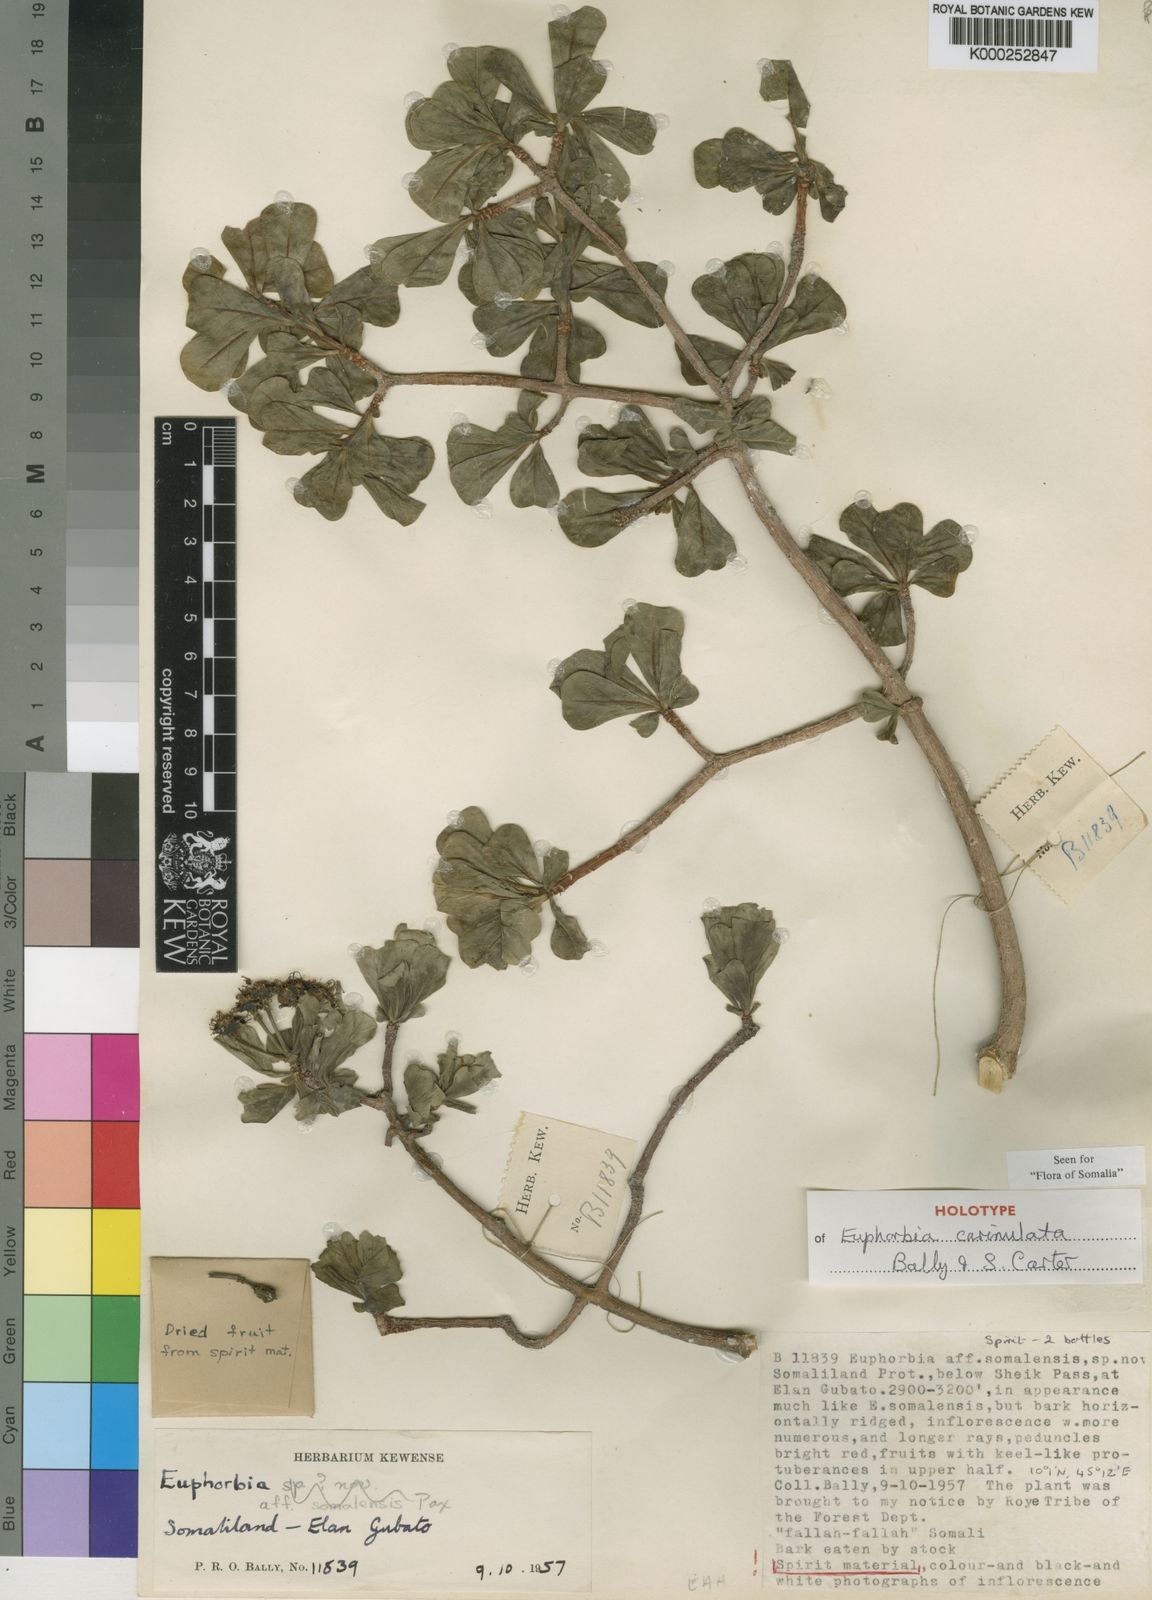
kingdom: Plantae
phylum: Tracheophyta
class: Magnoliopsida
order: Malpighiales
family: Euphorbiaceae
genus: Euphorbia
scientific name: Euphorbia carinulata
